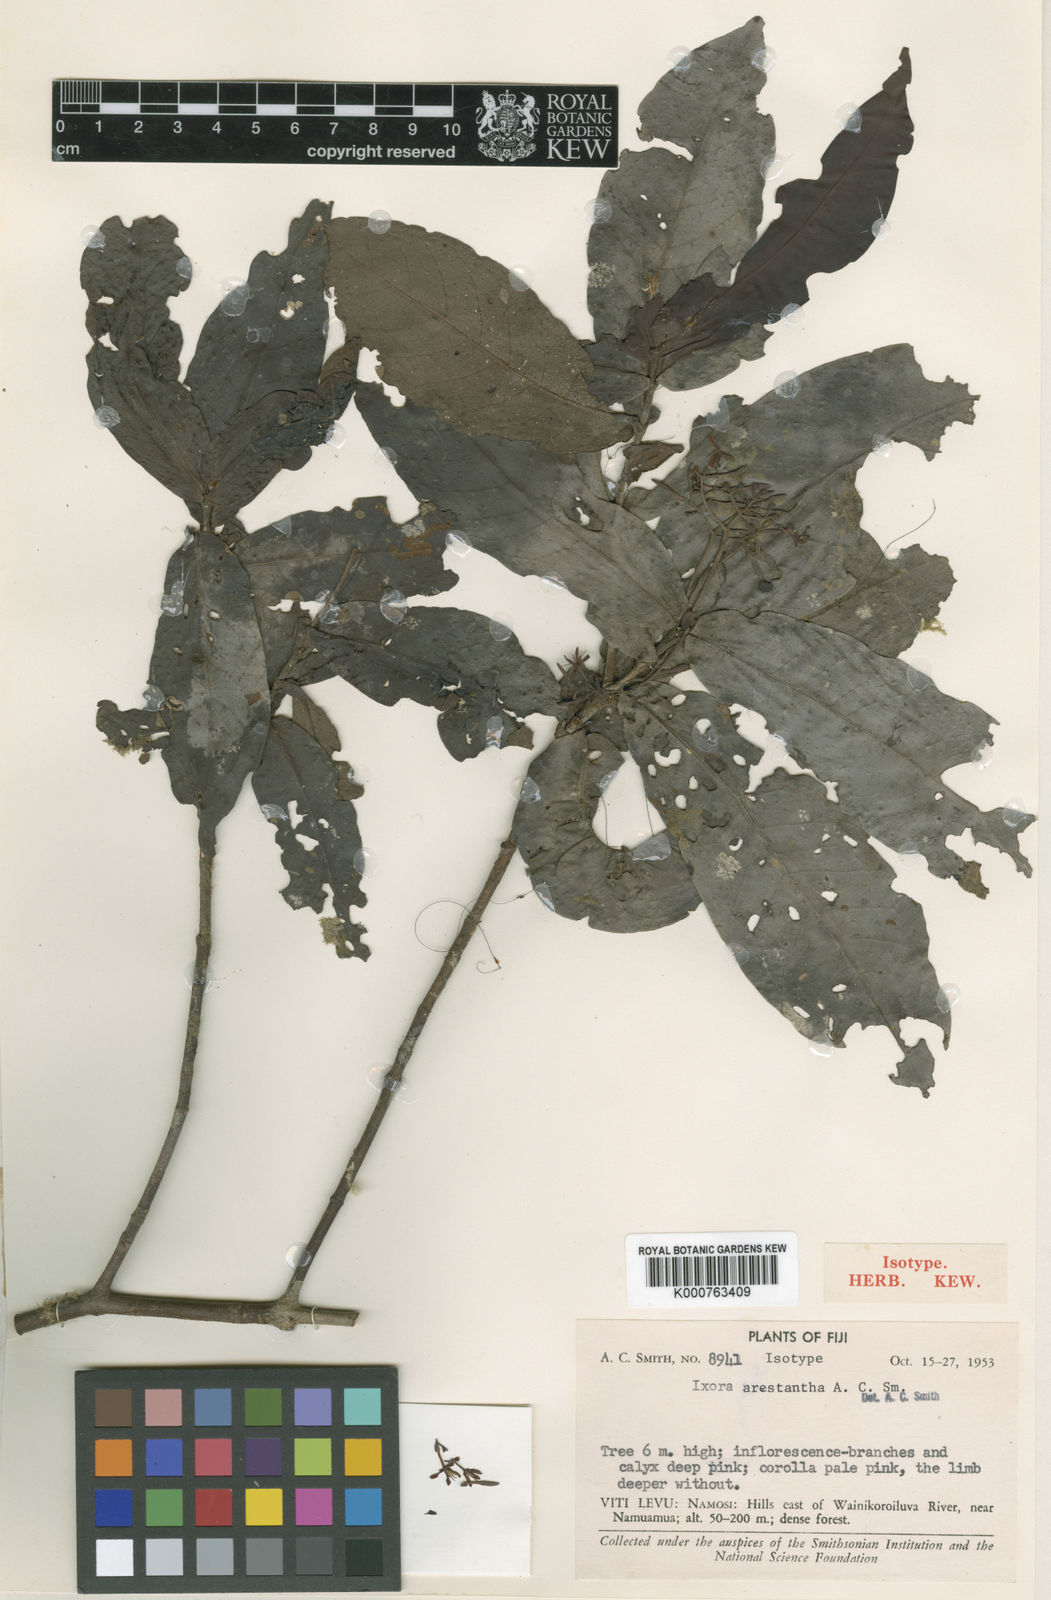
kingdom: Plantae
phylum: Tracheophyta
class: Magnoliopsida
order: Gentianales
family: Rubiaceae
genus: Ixora
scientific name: Ixora arestantha
